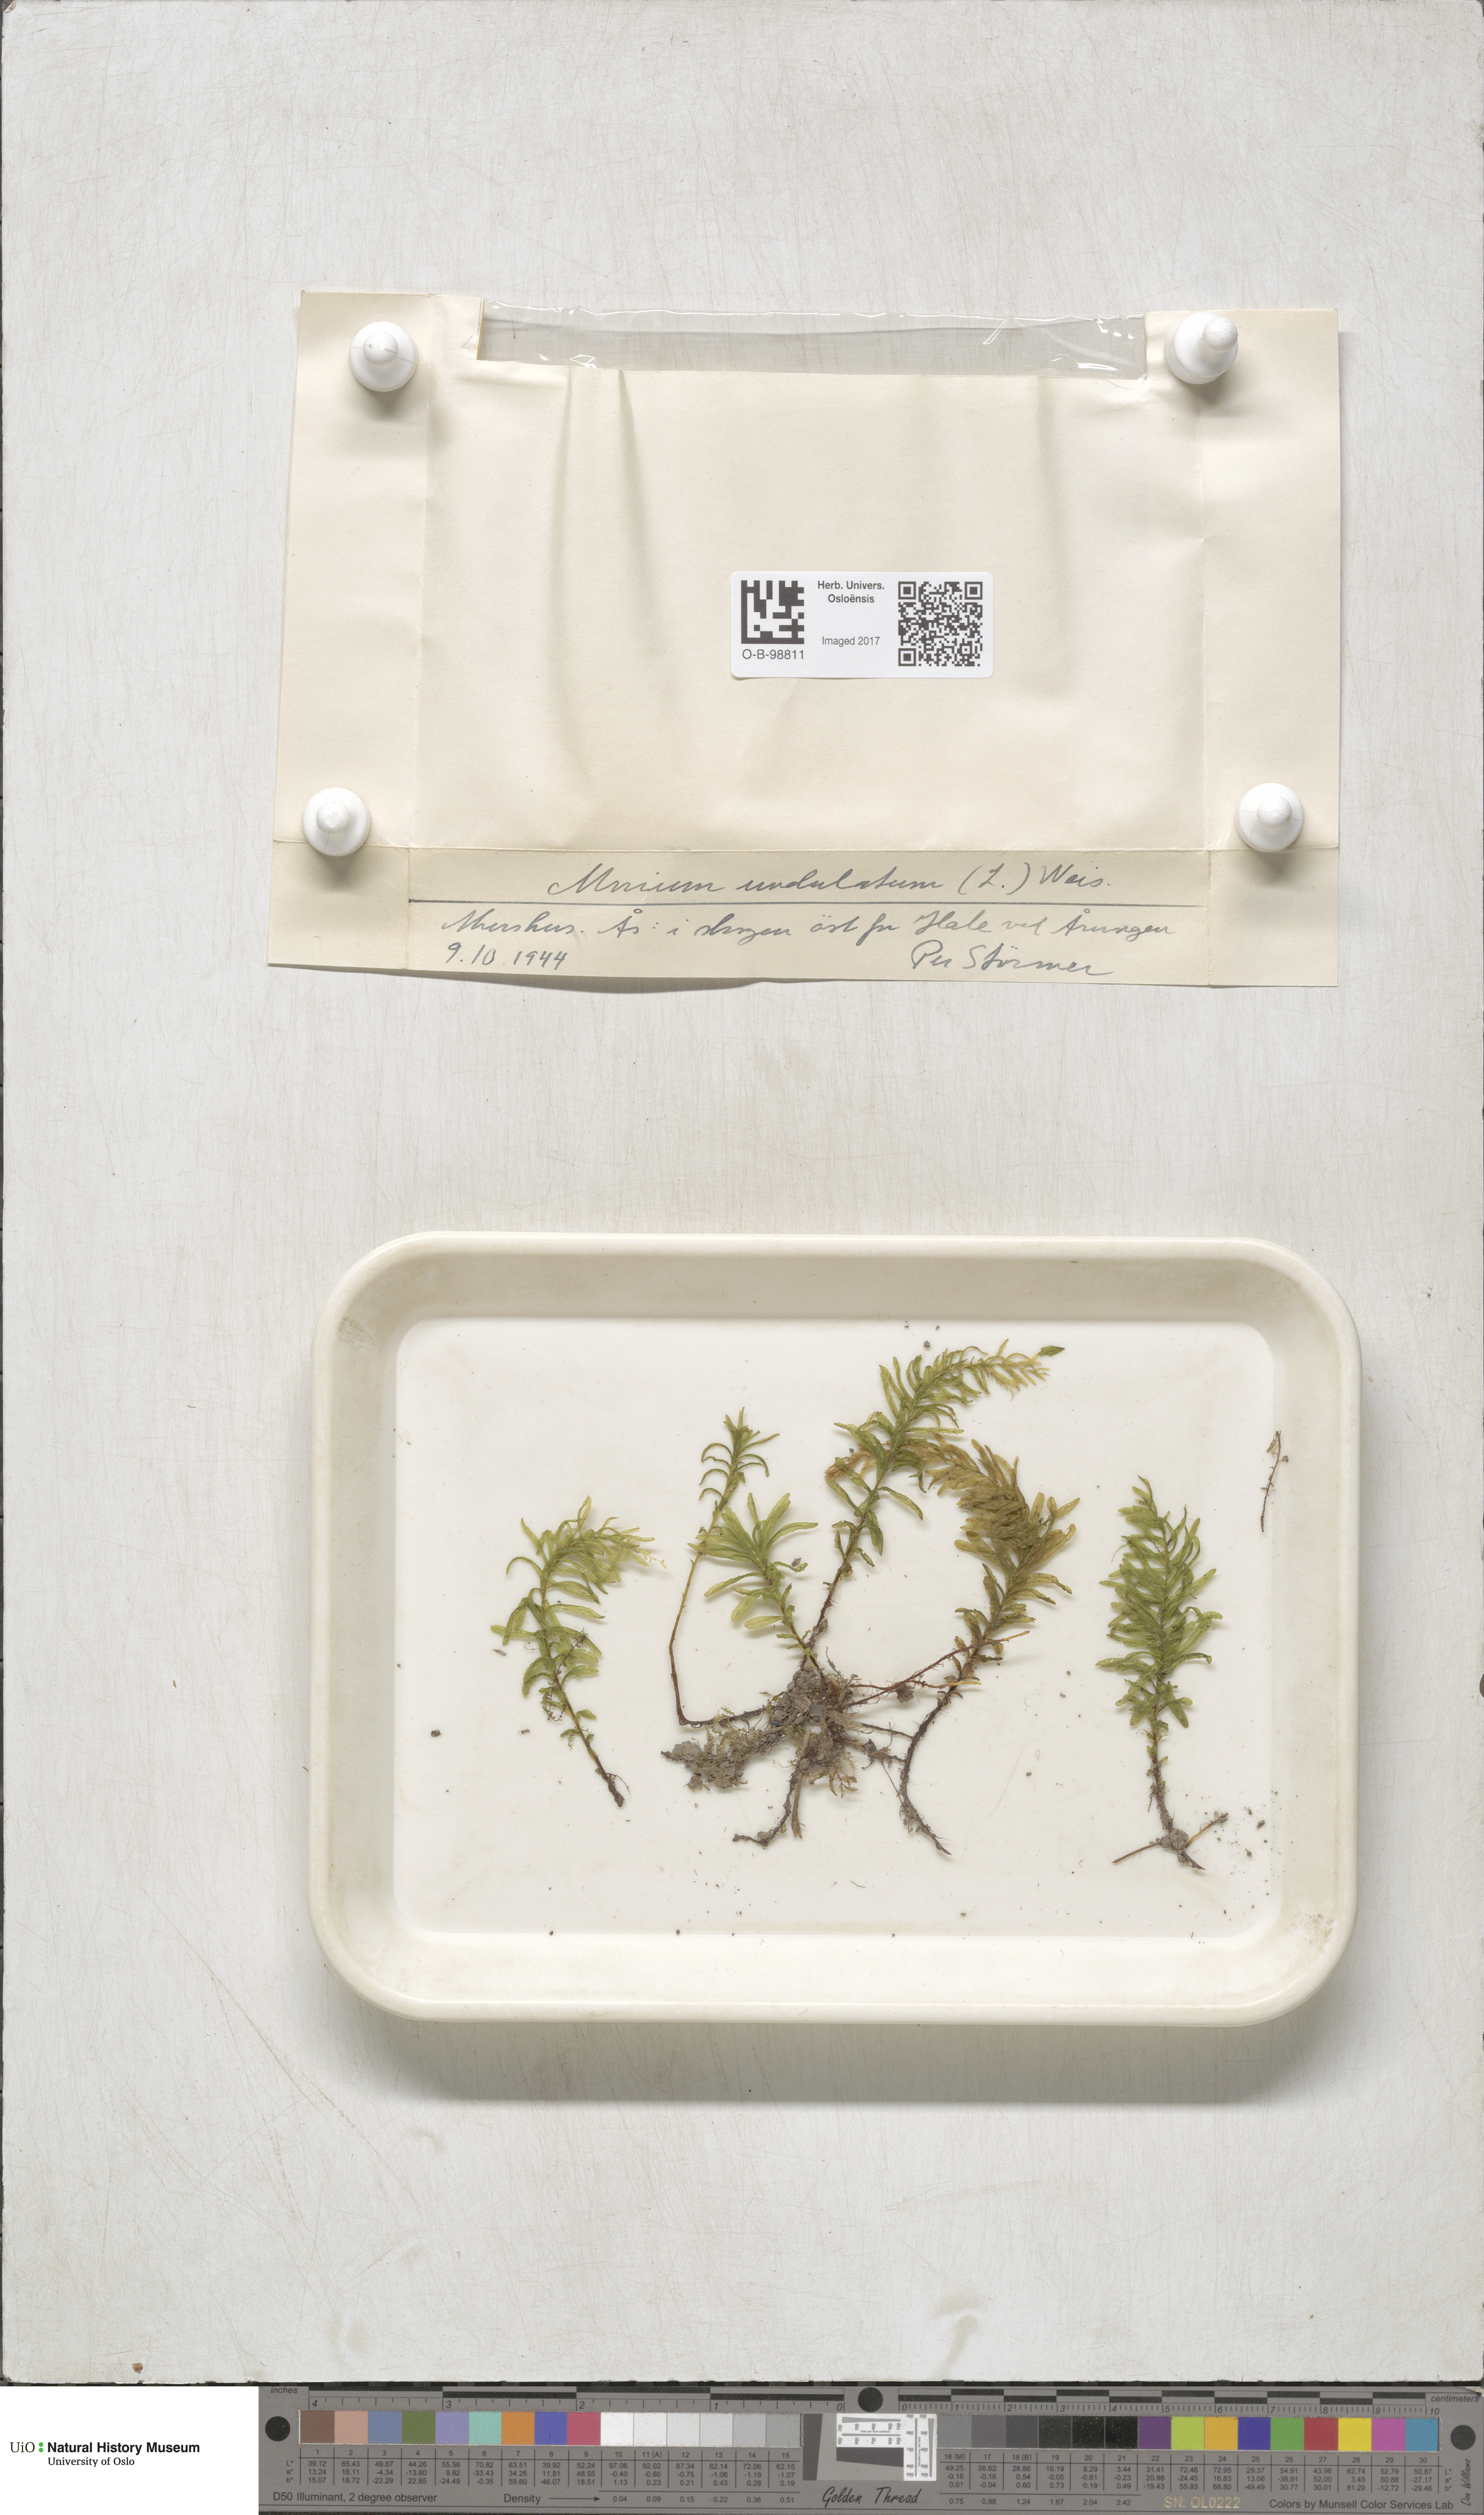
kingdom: Plantae
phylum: Bryophyta
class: Bryopsida
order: Bryales
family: Mniaceae
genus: Plagiomnium
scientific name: Plagiomnium undulatum
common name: Hart's-tongue thyme-moss
